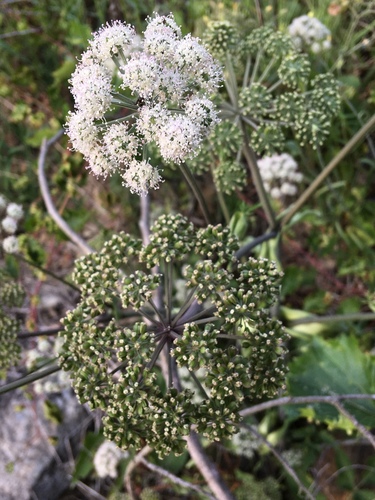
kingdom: Plantae
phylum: Tracheophyta
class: Magnoliopsida
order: Apiales
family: Apiaceae
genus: Angelica
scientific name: Angelica sylvestris
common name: Wild angelica
